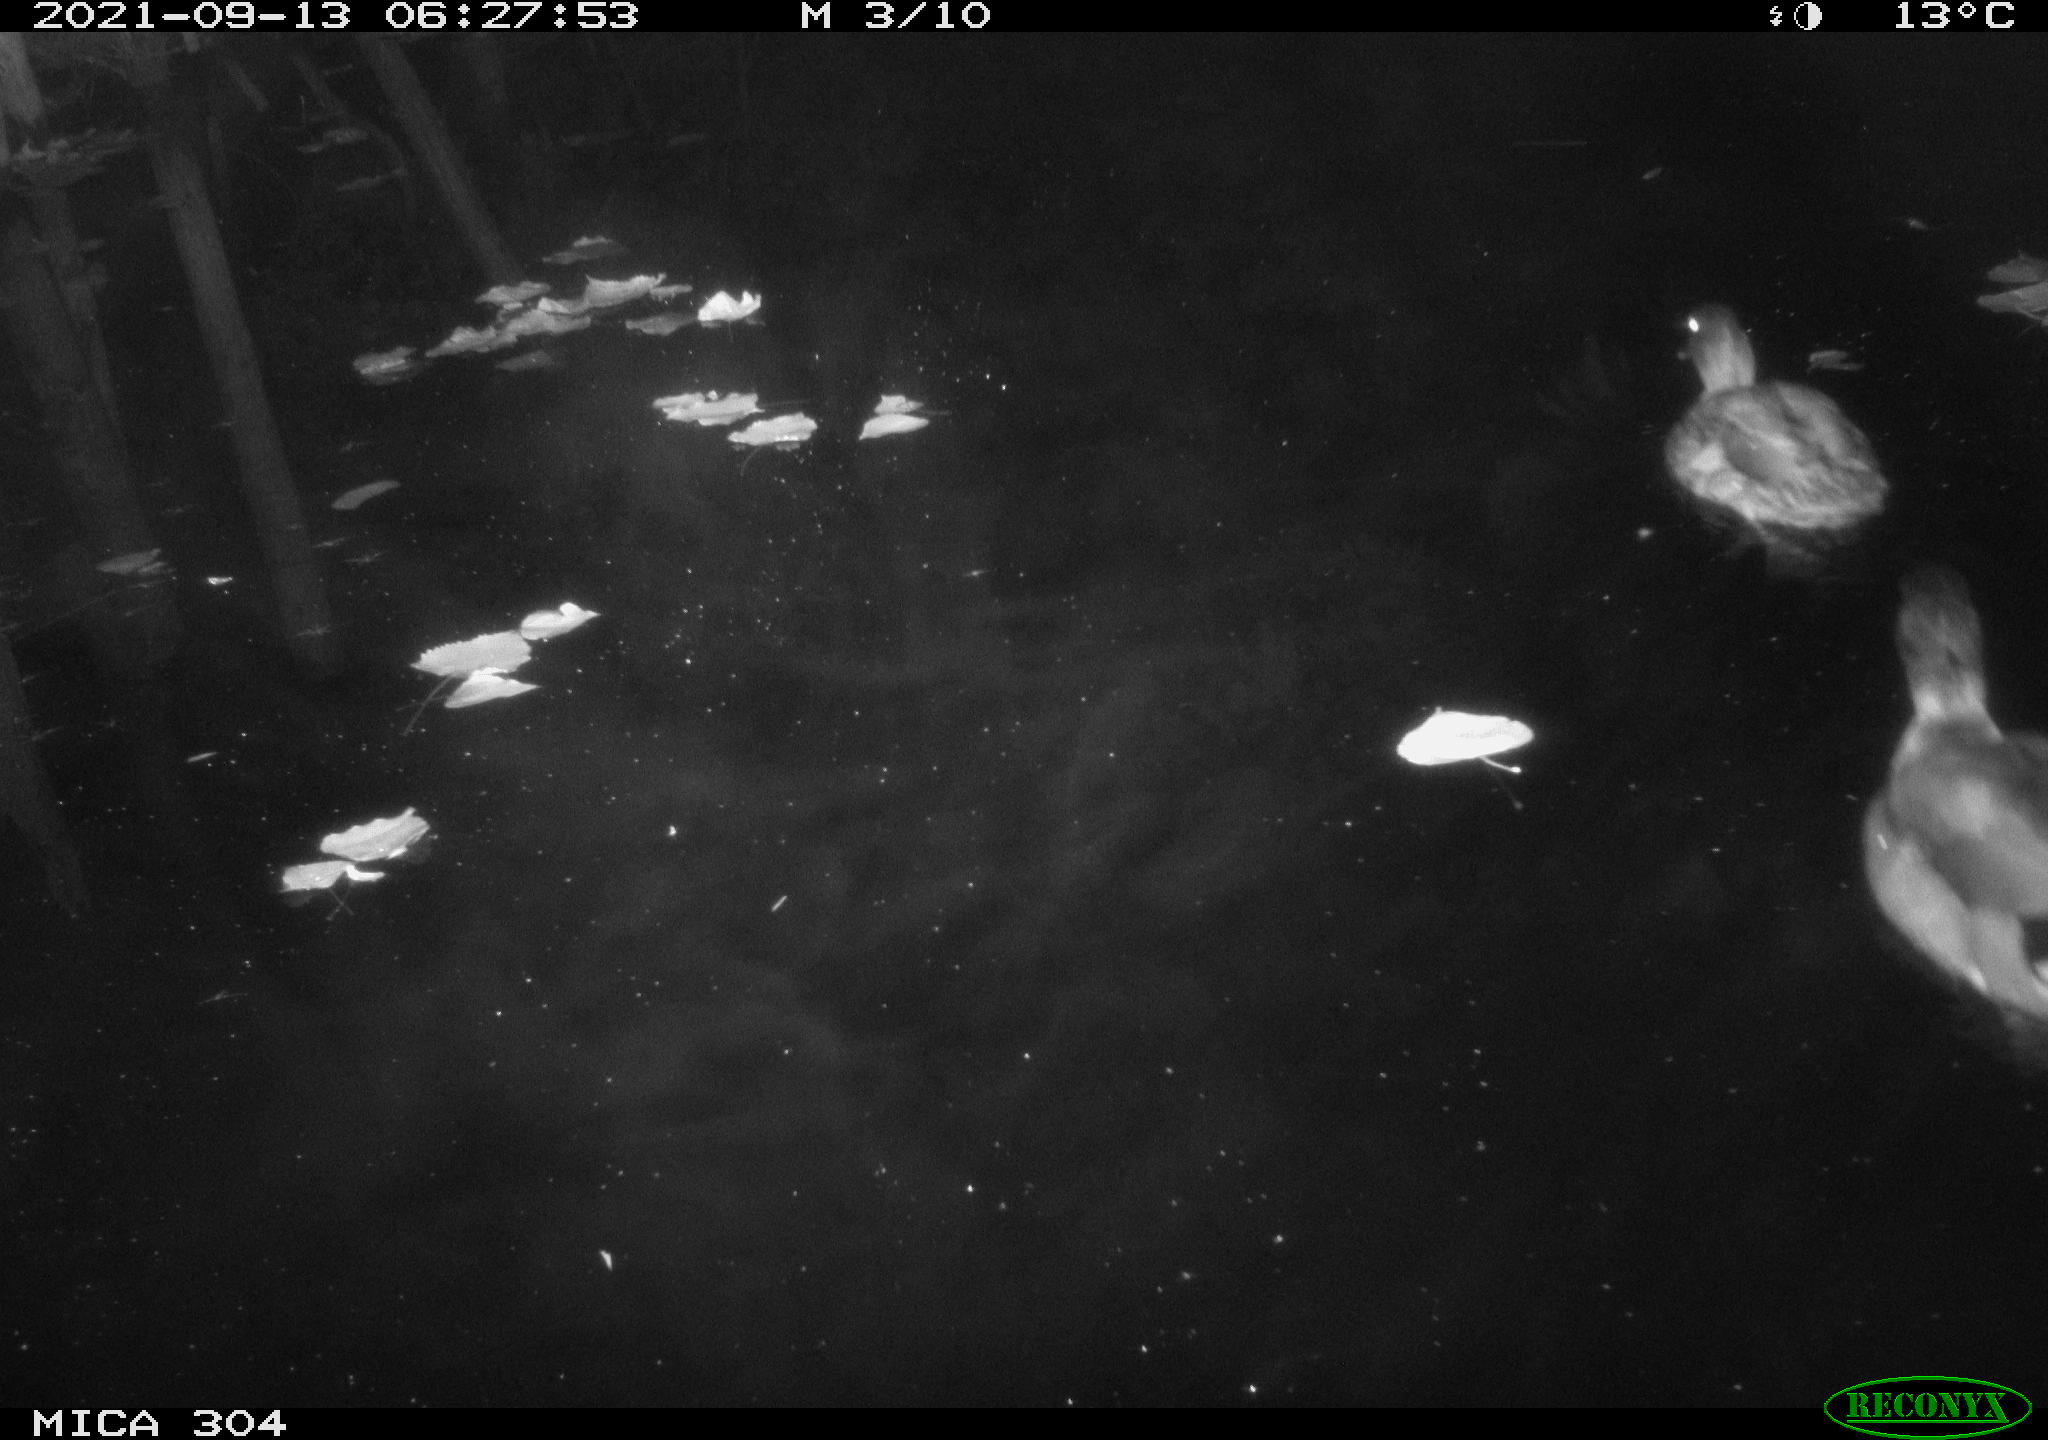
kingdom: Animalia
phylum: Chordata
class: Aves
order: Anseriformes
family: Anatidae
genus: Anas
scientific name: Anas platyrhynchos
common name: Mallard
